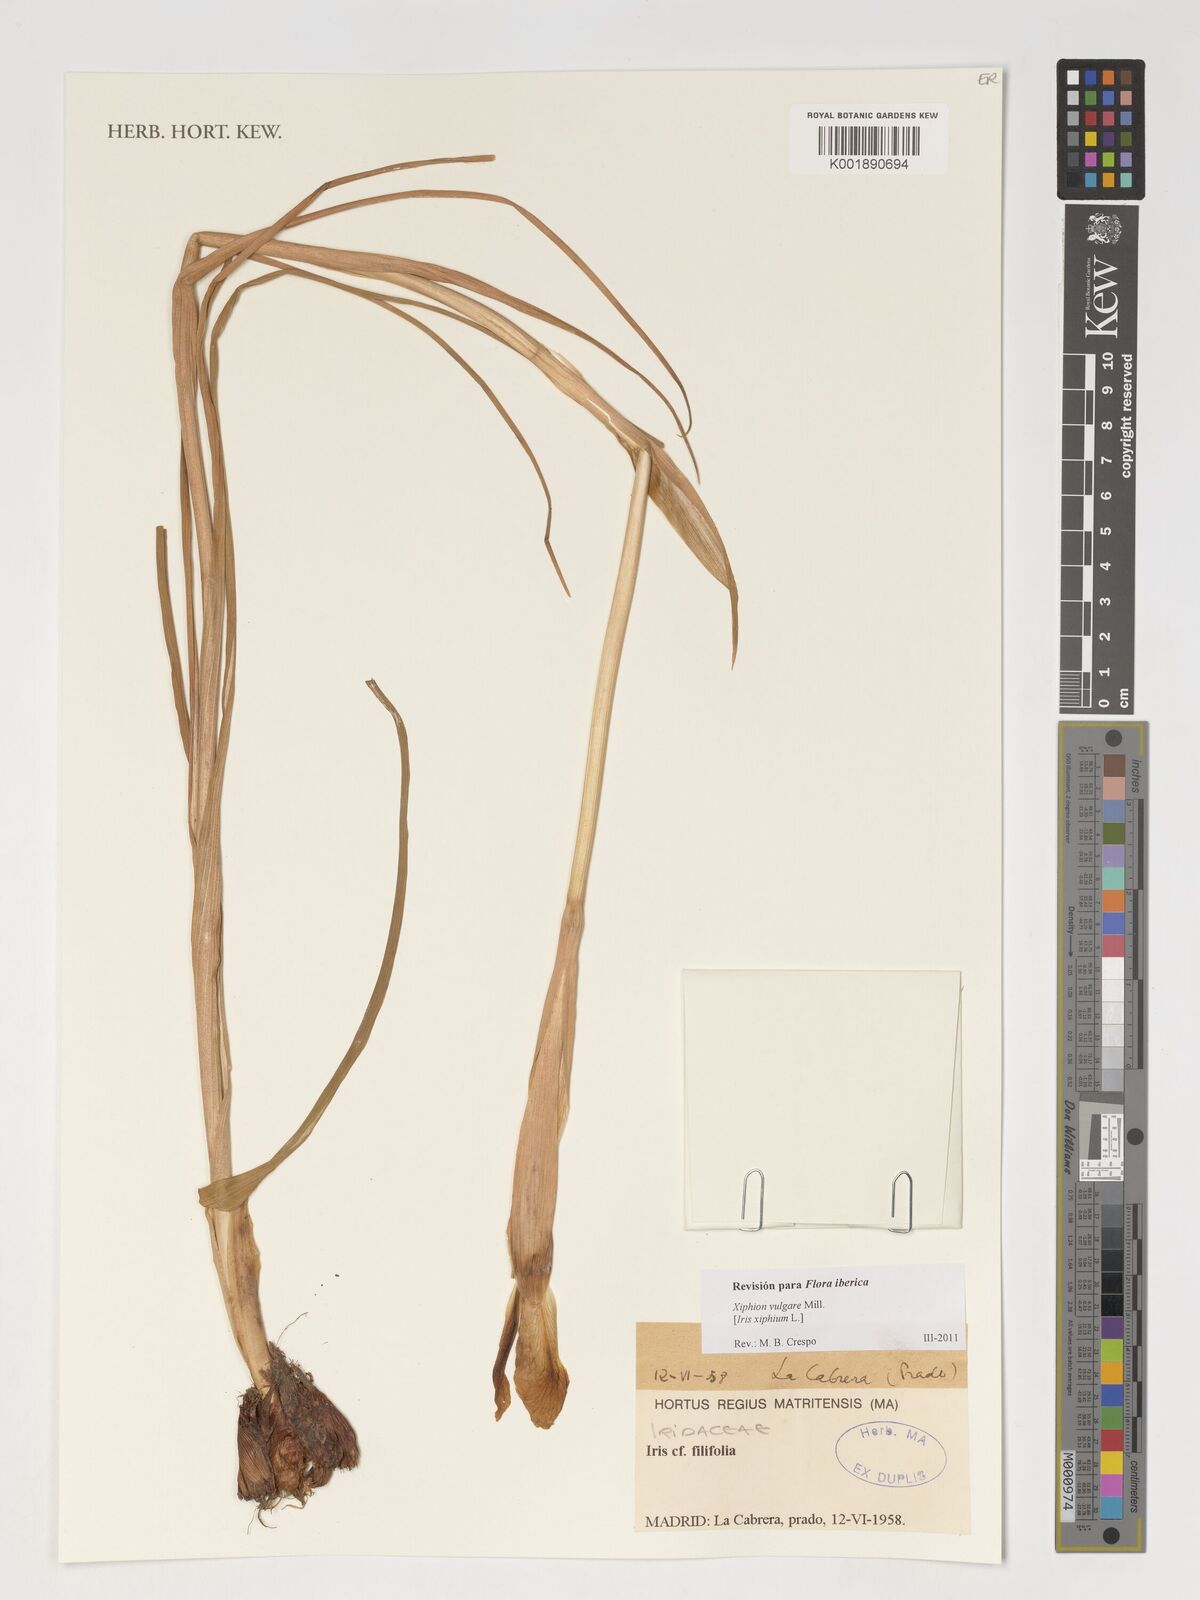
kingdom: Plantae
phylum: Tracheophyta
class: Liliopsida
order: Asparagales
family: Iridaceae
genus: Iris
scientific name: Iris xiphium
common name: Spanish iris
